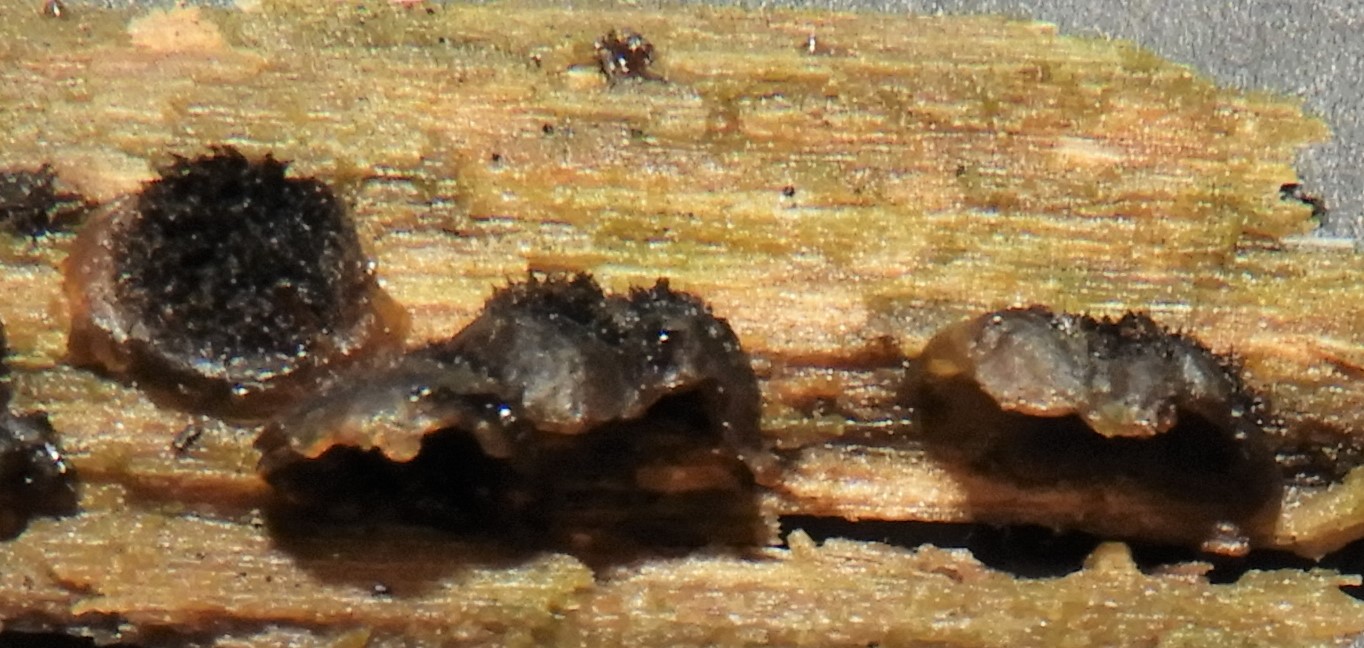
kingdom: Fungi
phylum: Basidiomycota
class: Agaricomycetes
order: Agaricales
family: Pleurotaceae
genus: Resupinatus
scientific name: Resupinatus trichotis
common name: mørkfiltet barkhat
